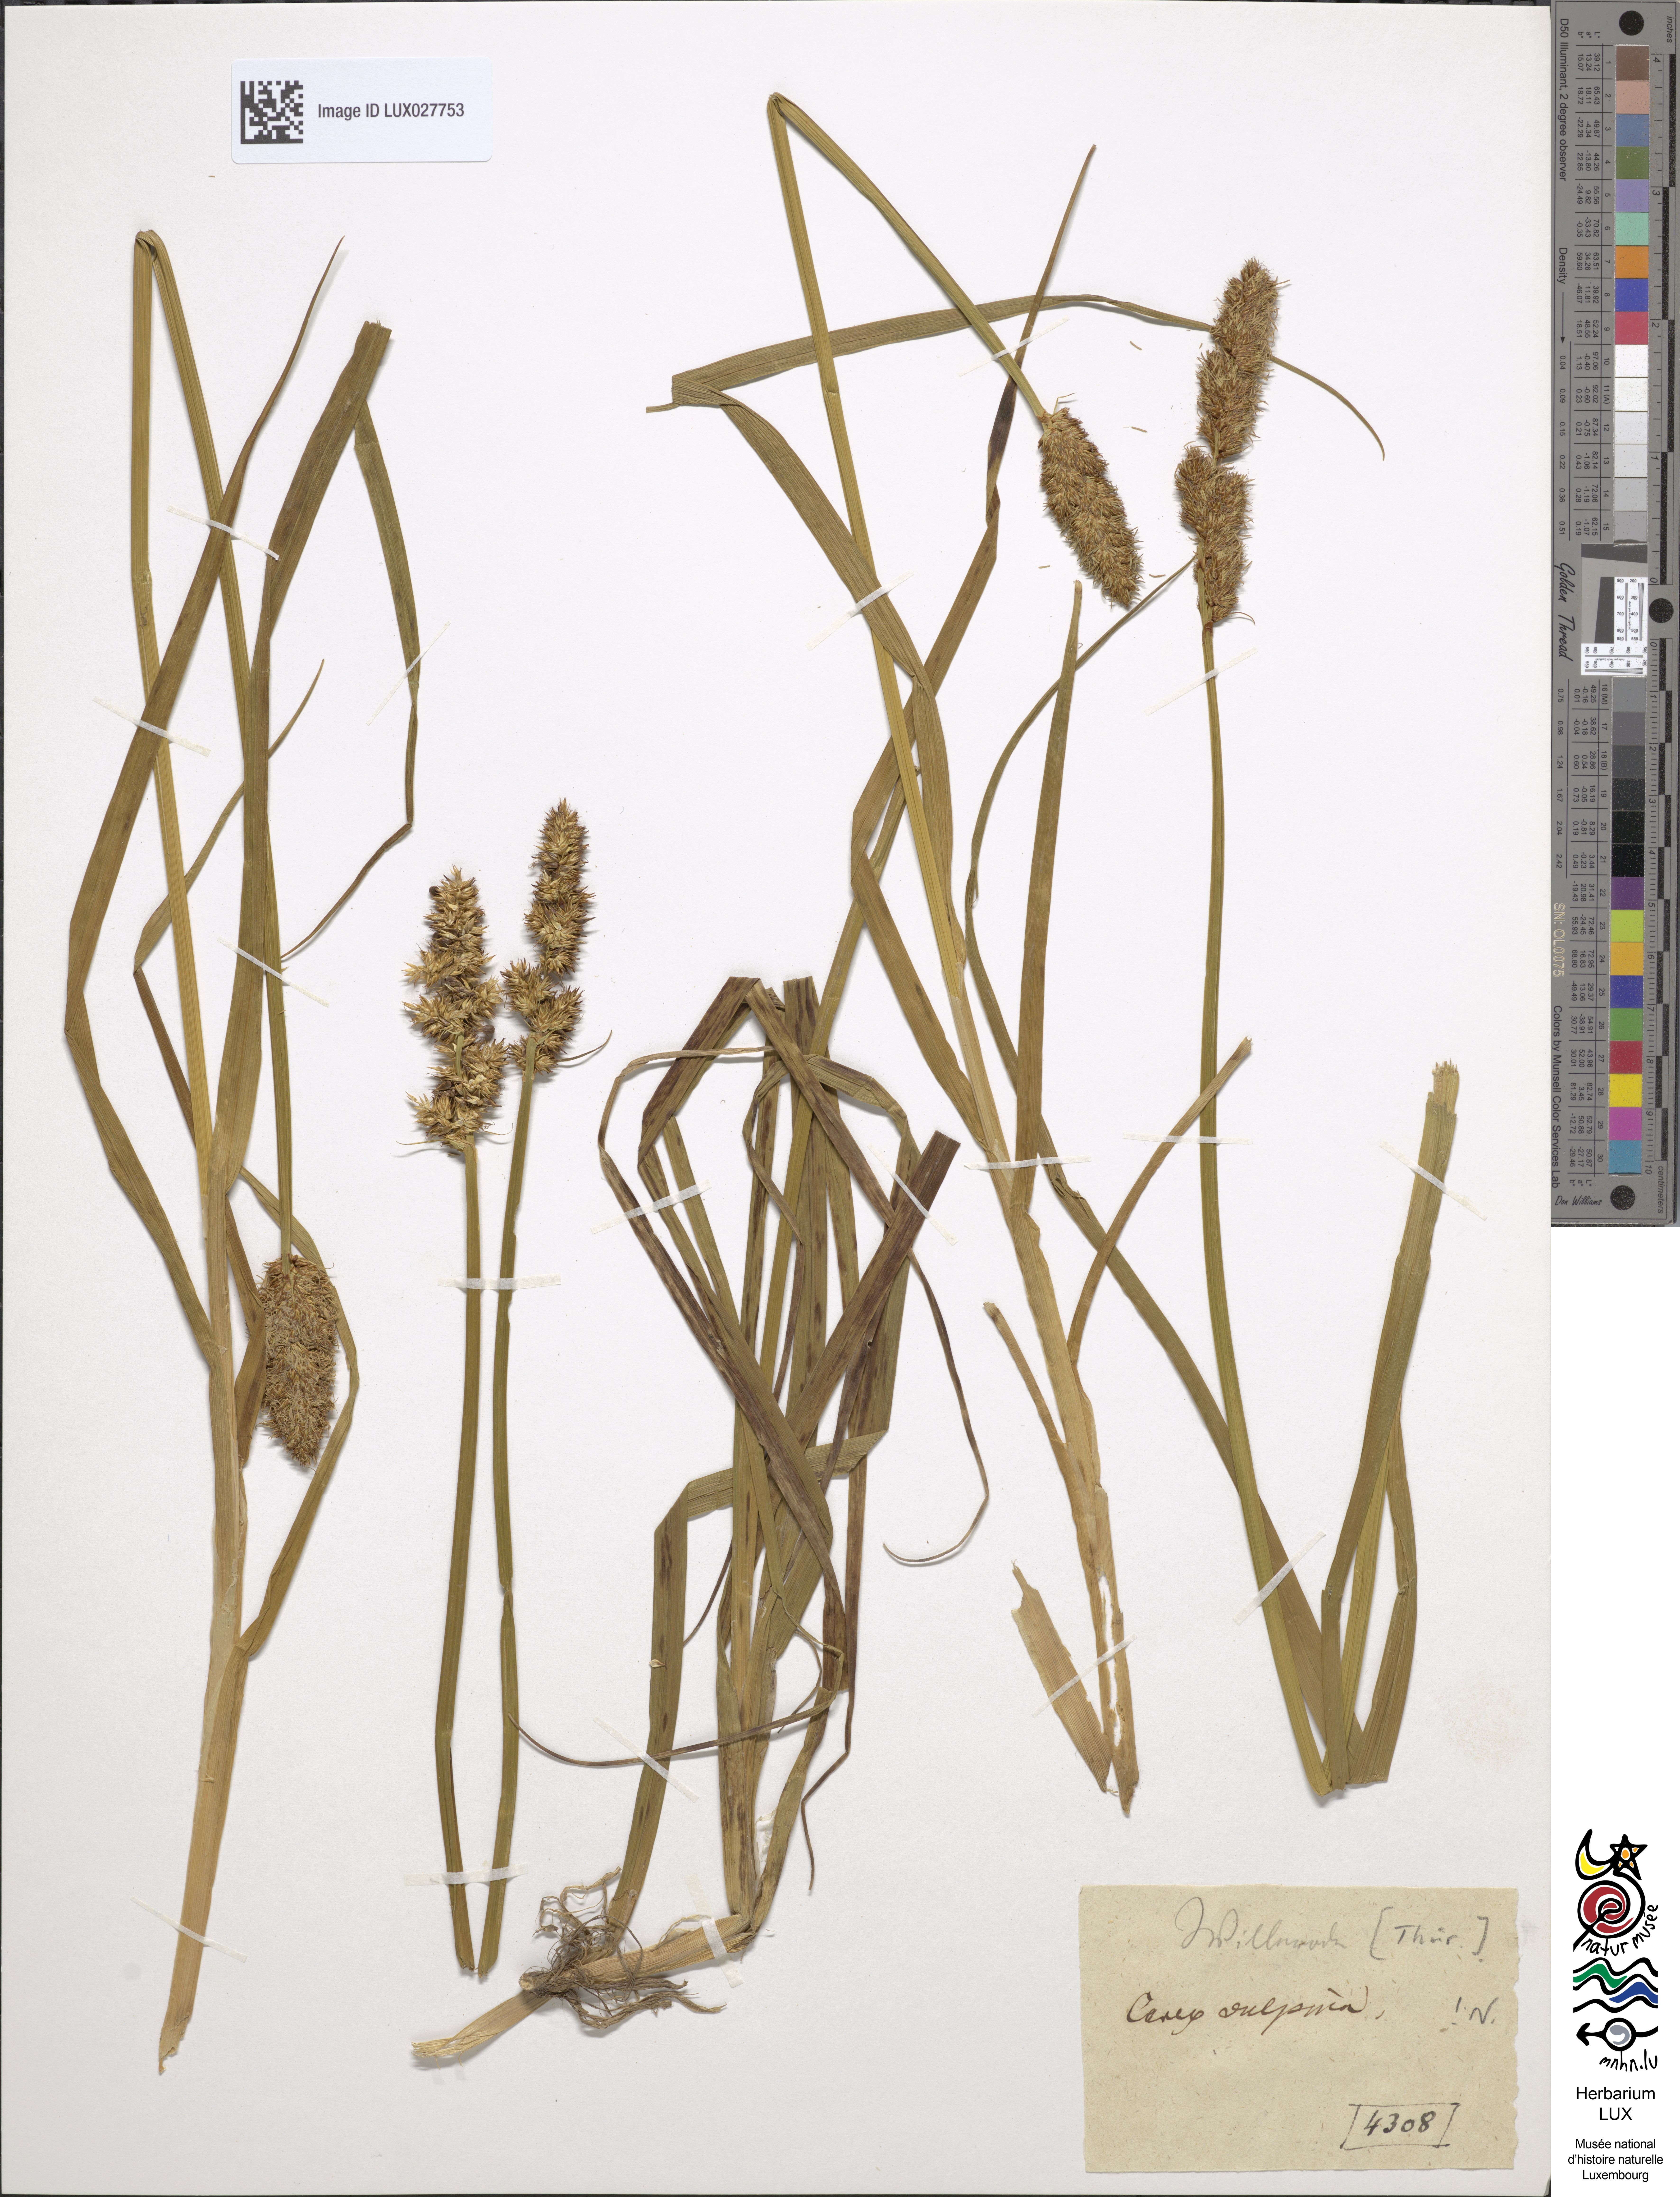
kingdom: Plantae
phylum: Tracheophyta
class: Liliopsida
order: Poales
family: Cyperaceae
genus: Carex
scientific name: Carex vulpina
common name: True fox-sedge
